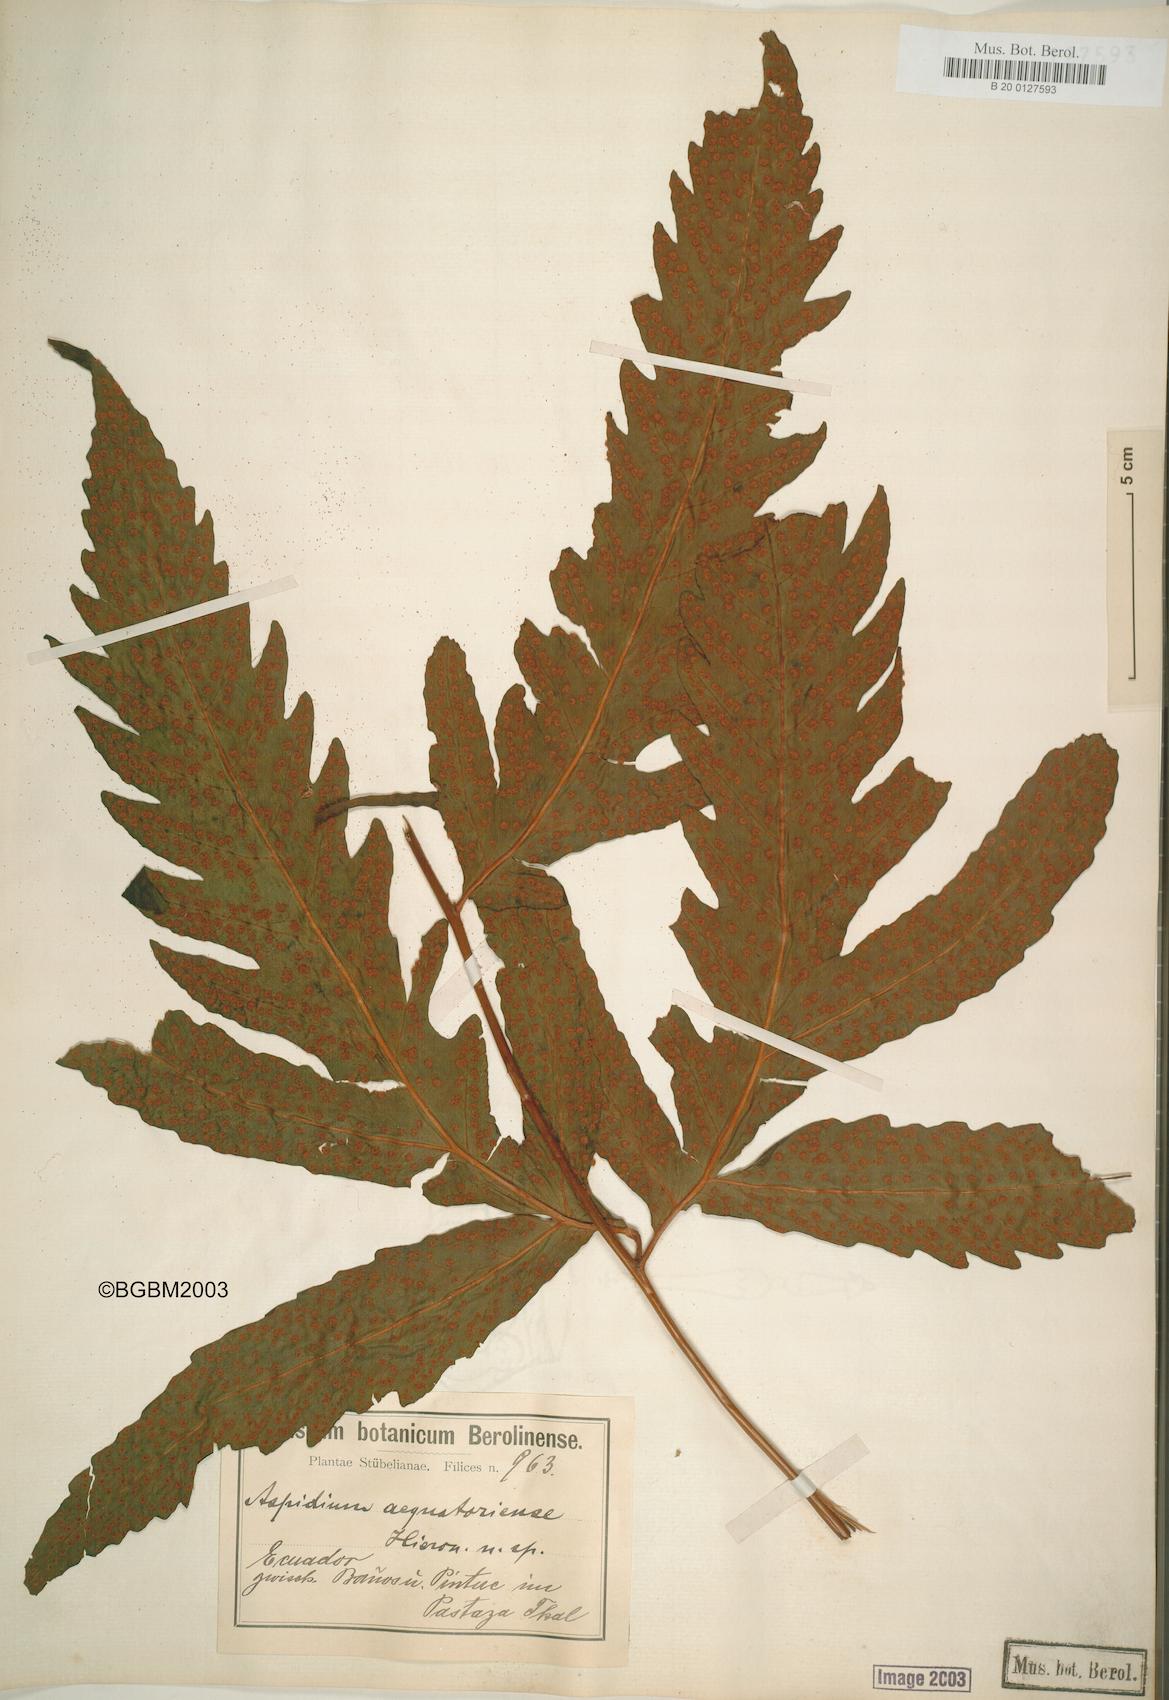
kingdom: Plantae
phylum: Tracheophyta
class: Polypodiopsida
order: Polypodiales
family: Tectariaceae
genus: Tectaria
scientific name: Tectaria aequatoriensis
